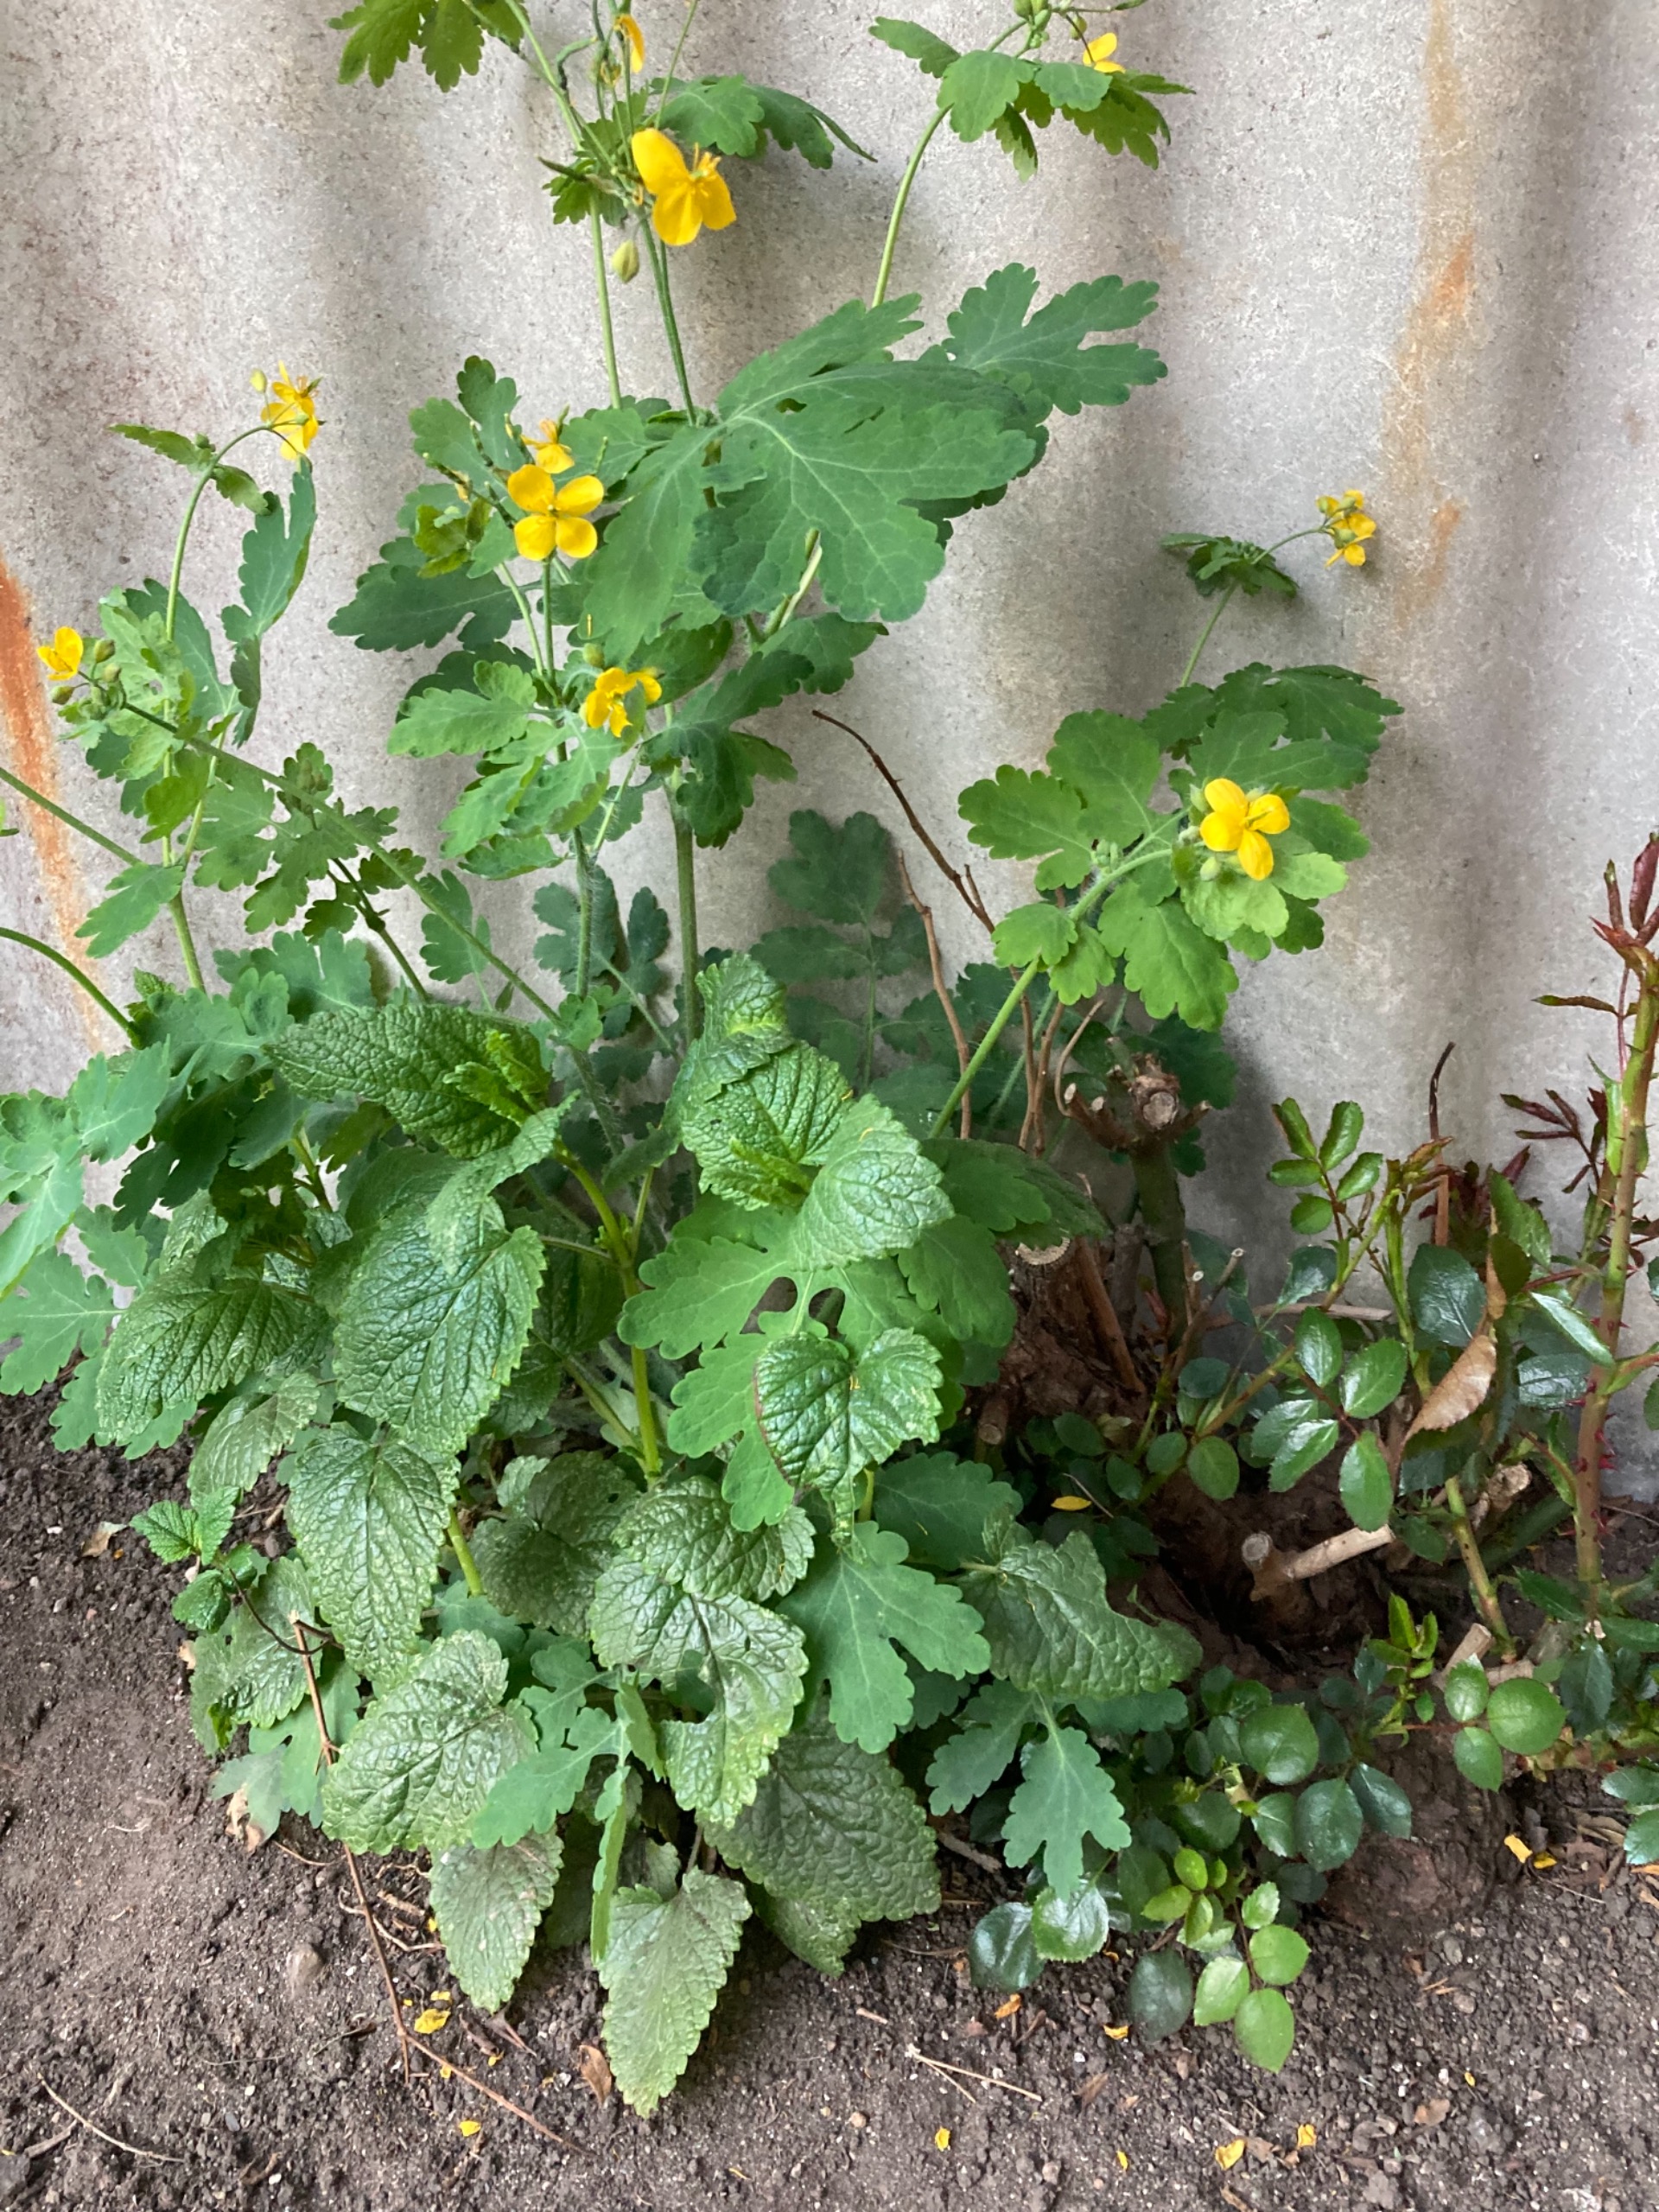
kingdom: Plantae
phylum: Tracheophyta
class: Magnoliopsida
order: Ranunculales
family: Papaveraceae
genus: Chelidonium
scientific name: Chelidonium majus
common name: Svaleurt
